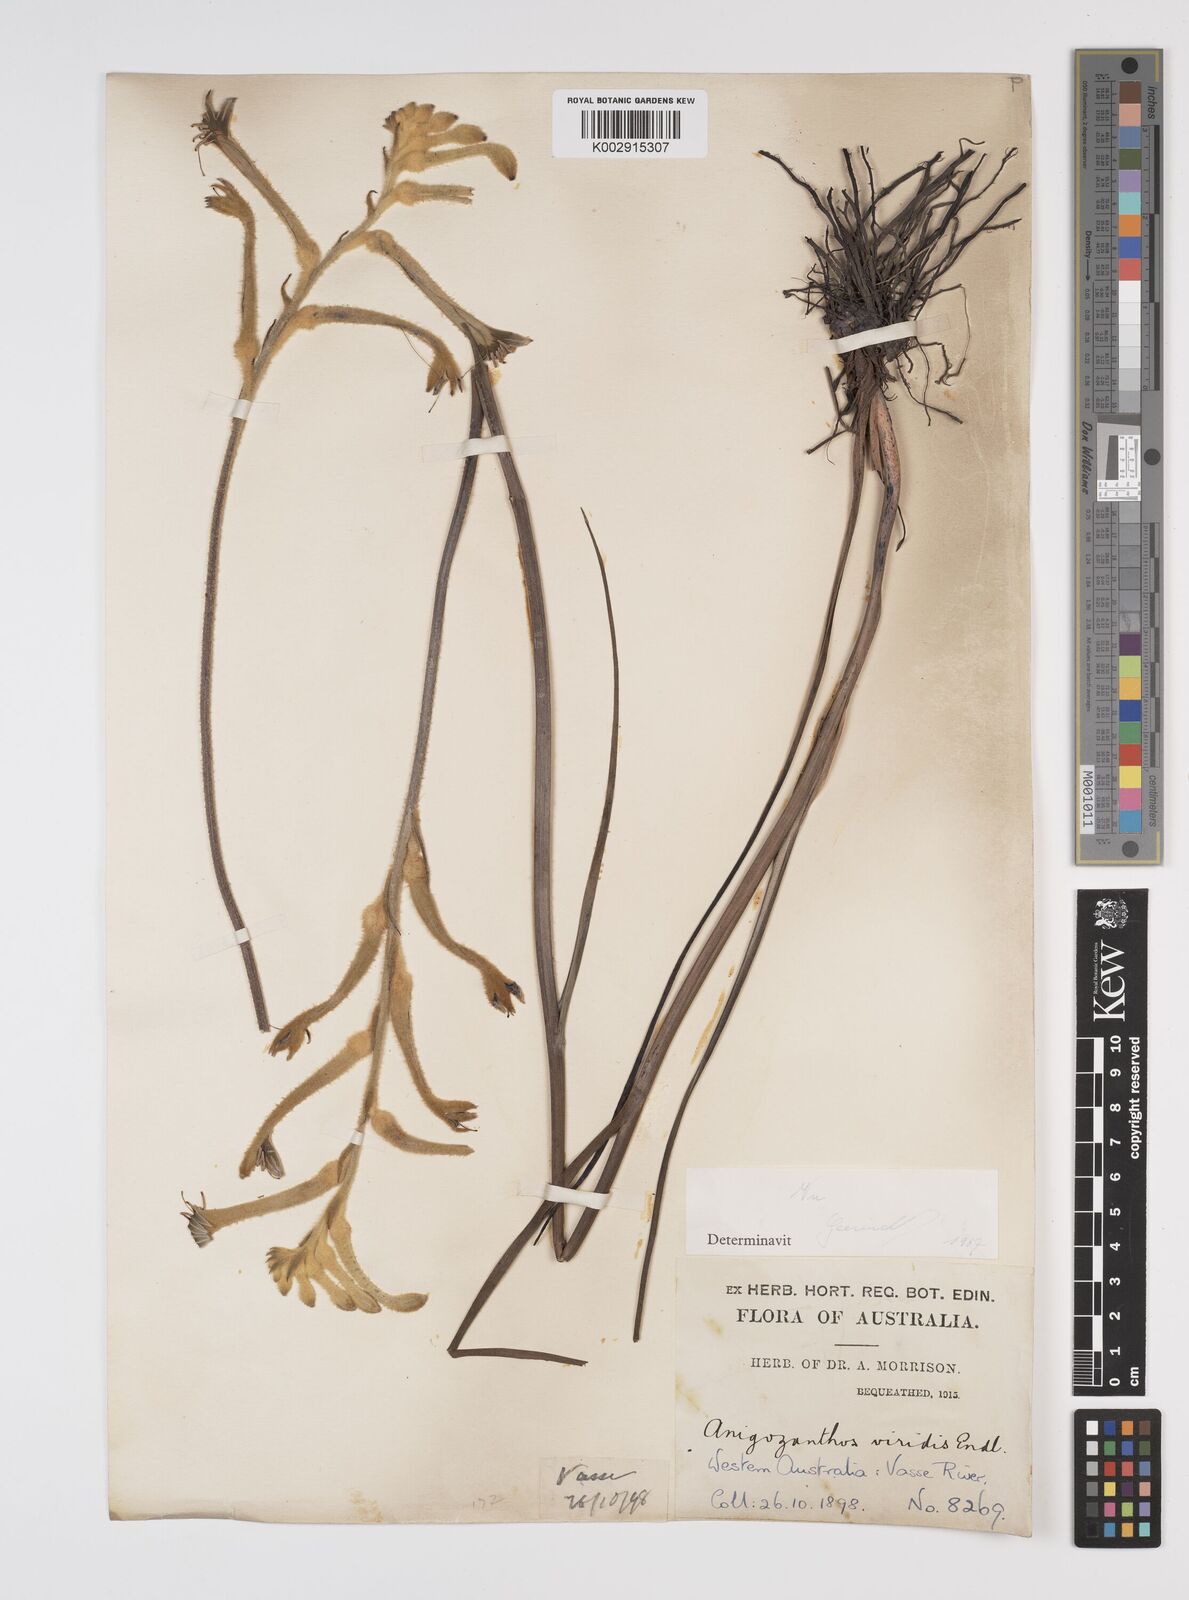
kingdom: Plantae
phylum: Tracheophyta
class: Liliopsida
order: Commelinales
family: Haemodoraceae
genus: Anigozanthos
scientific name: Anigozanthos viridis
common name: Green kangaroo-paw
